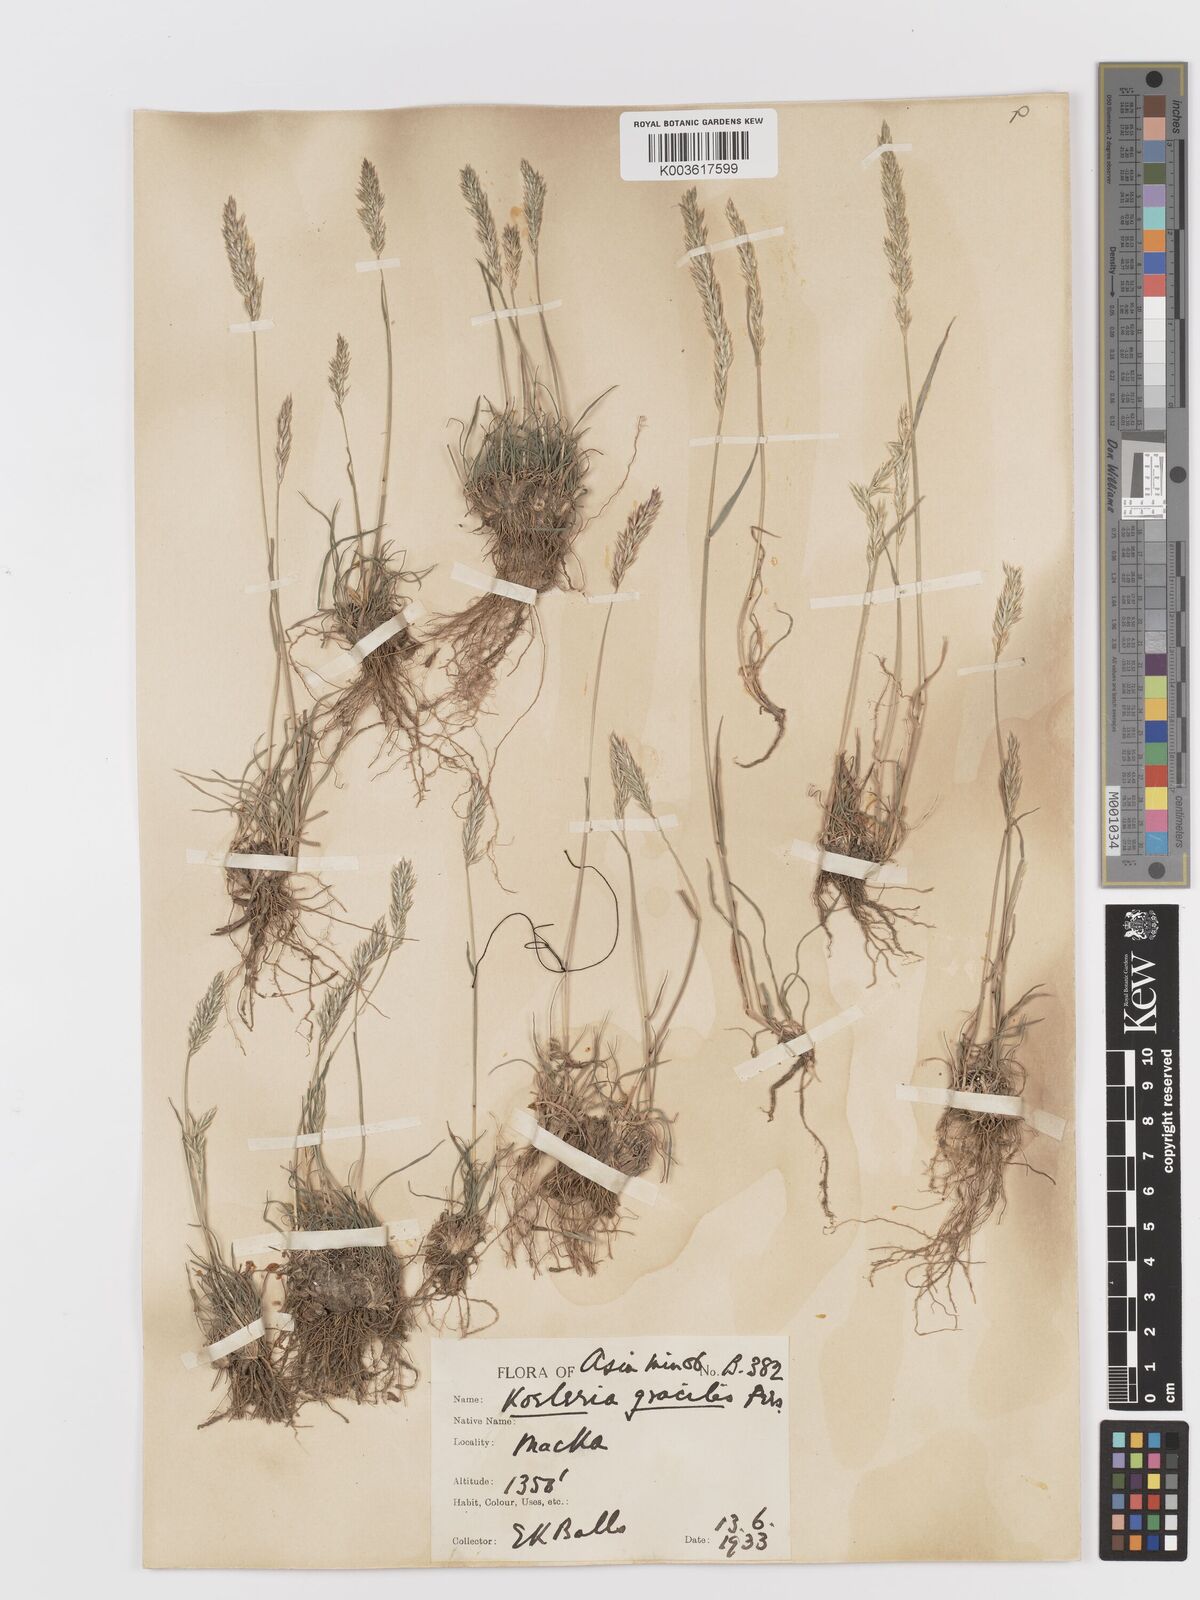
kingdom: Plantae
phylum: Tracheophyta
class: Liliopsida
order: Poales
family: Poaceae
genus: Koeleria
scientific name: Koeleria macrantha
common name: Crested hair-grass
